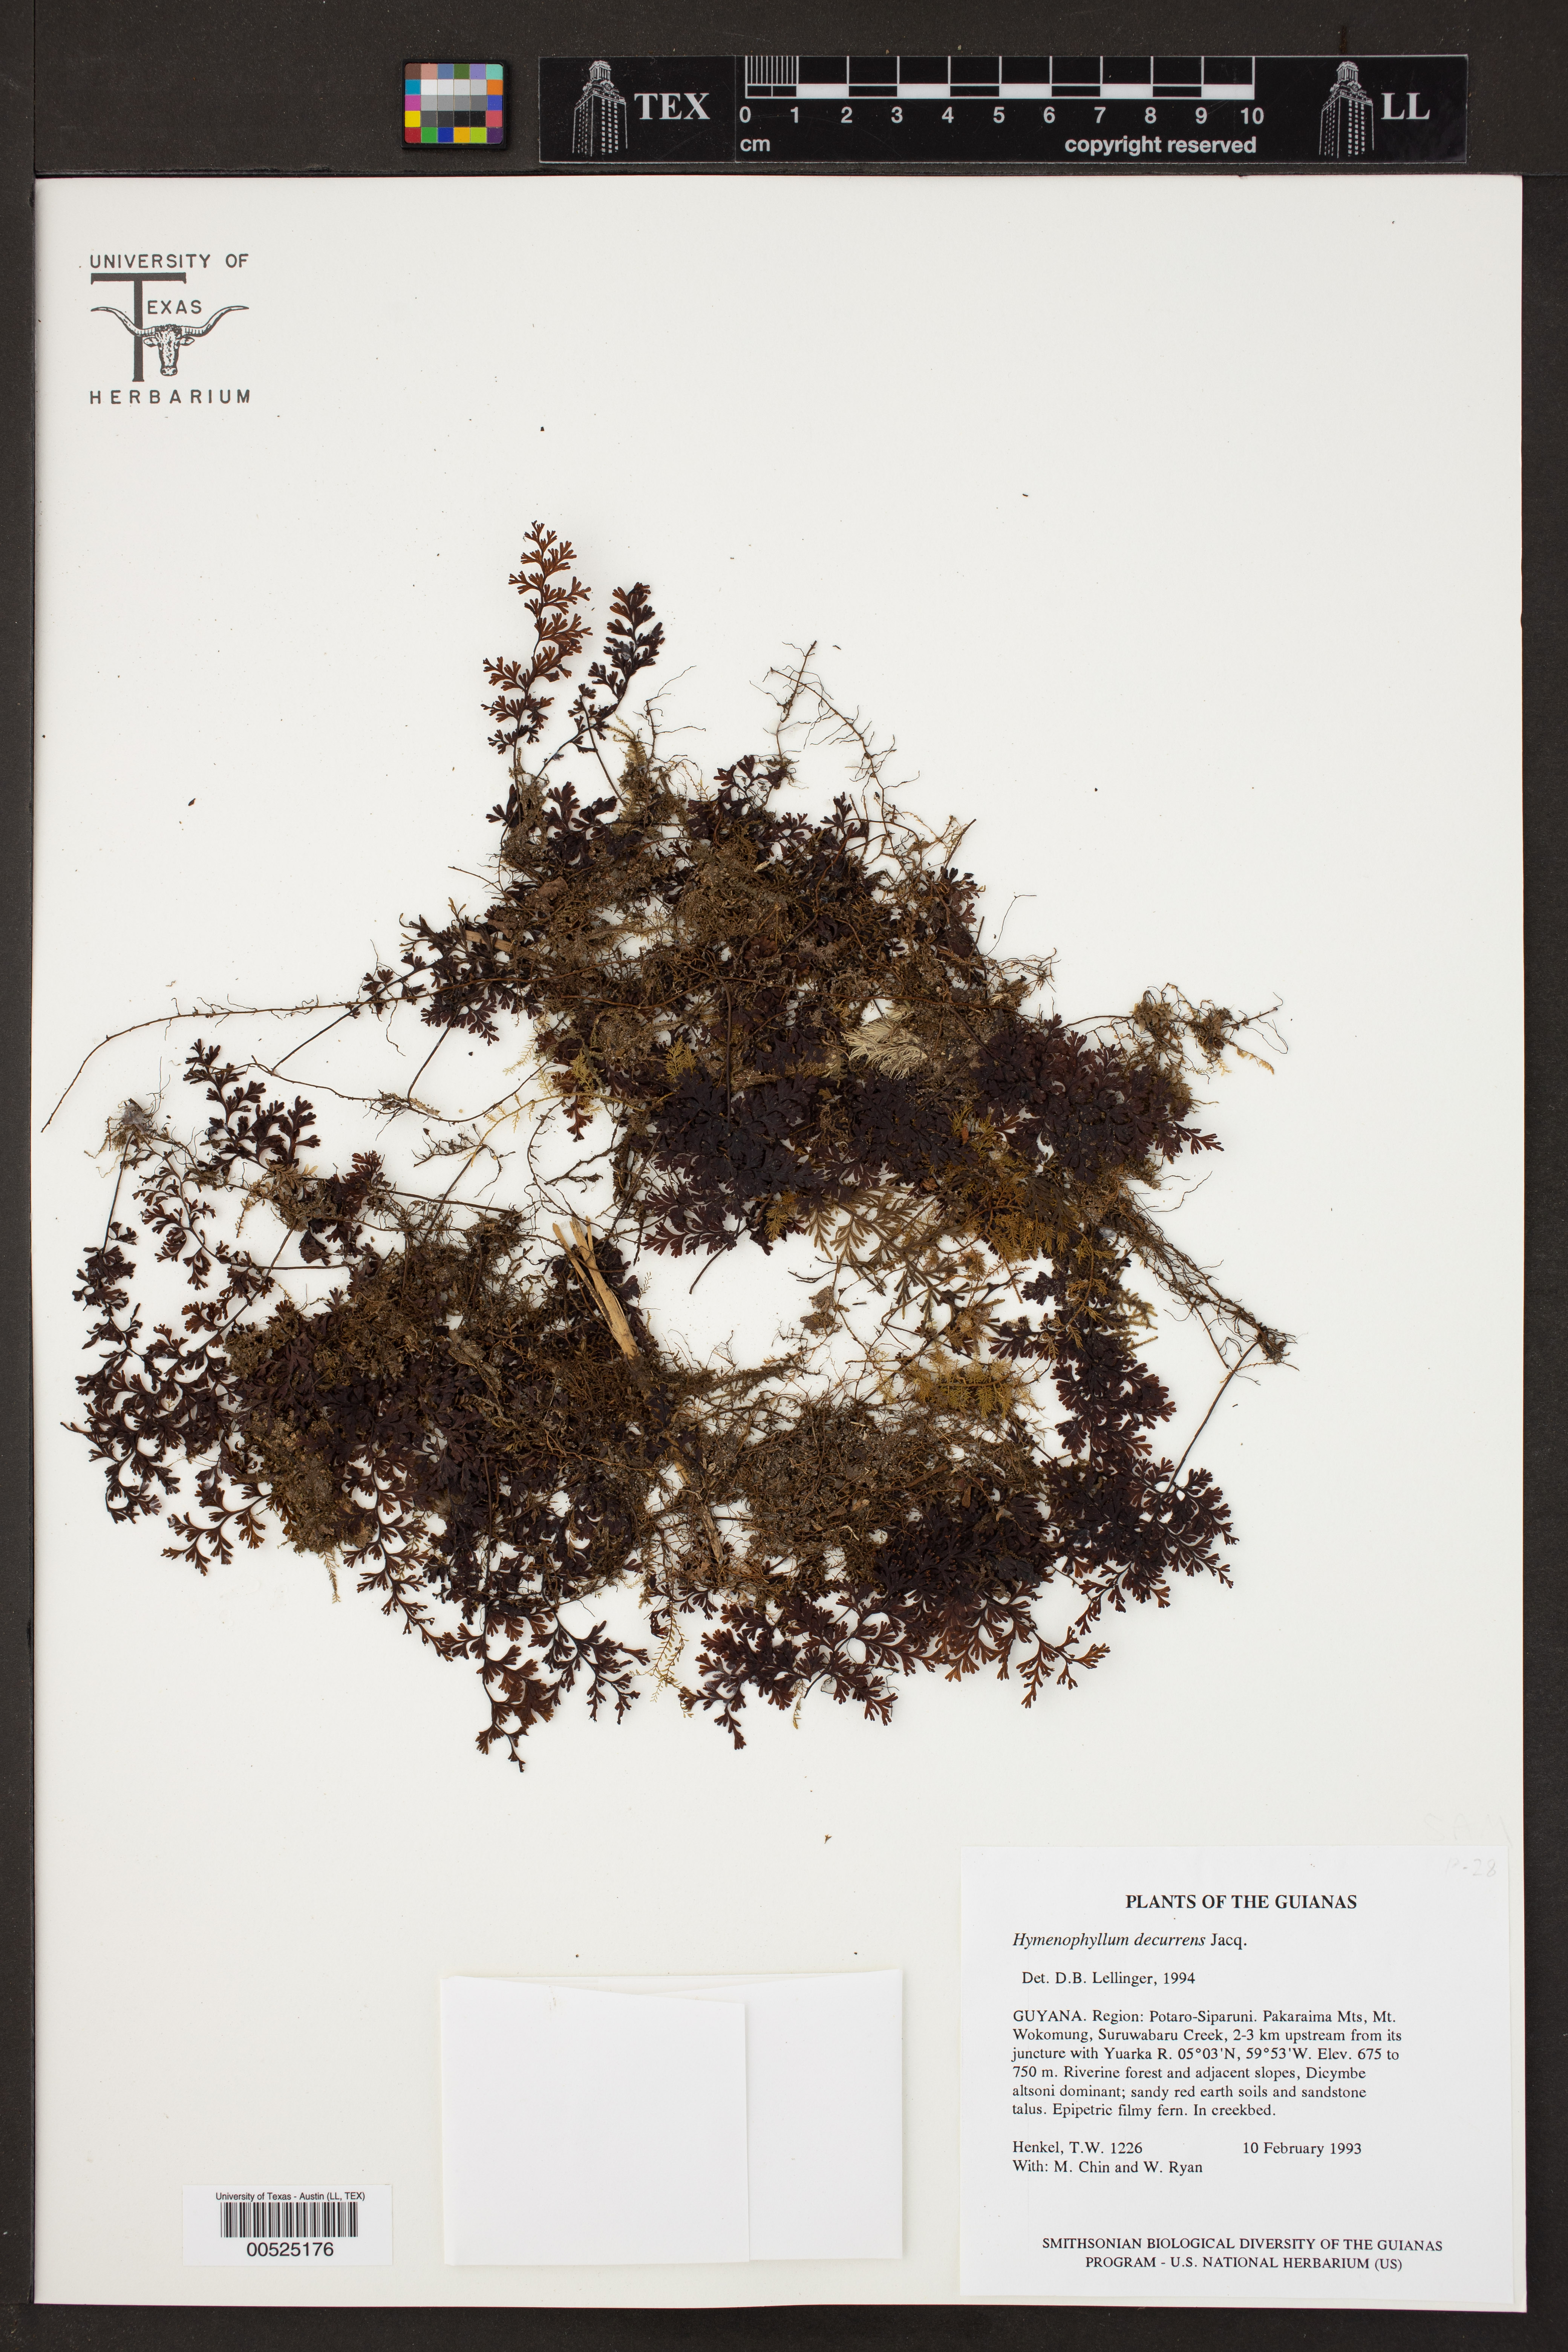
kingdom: Plantae
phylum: Tracheophyta
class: Polypodiopsida
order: Hymenophyllales
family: Hymenophyllaceae
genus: Hymenophyllum
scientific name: Hymenophyllum protrusum
